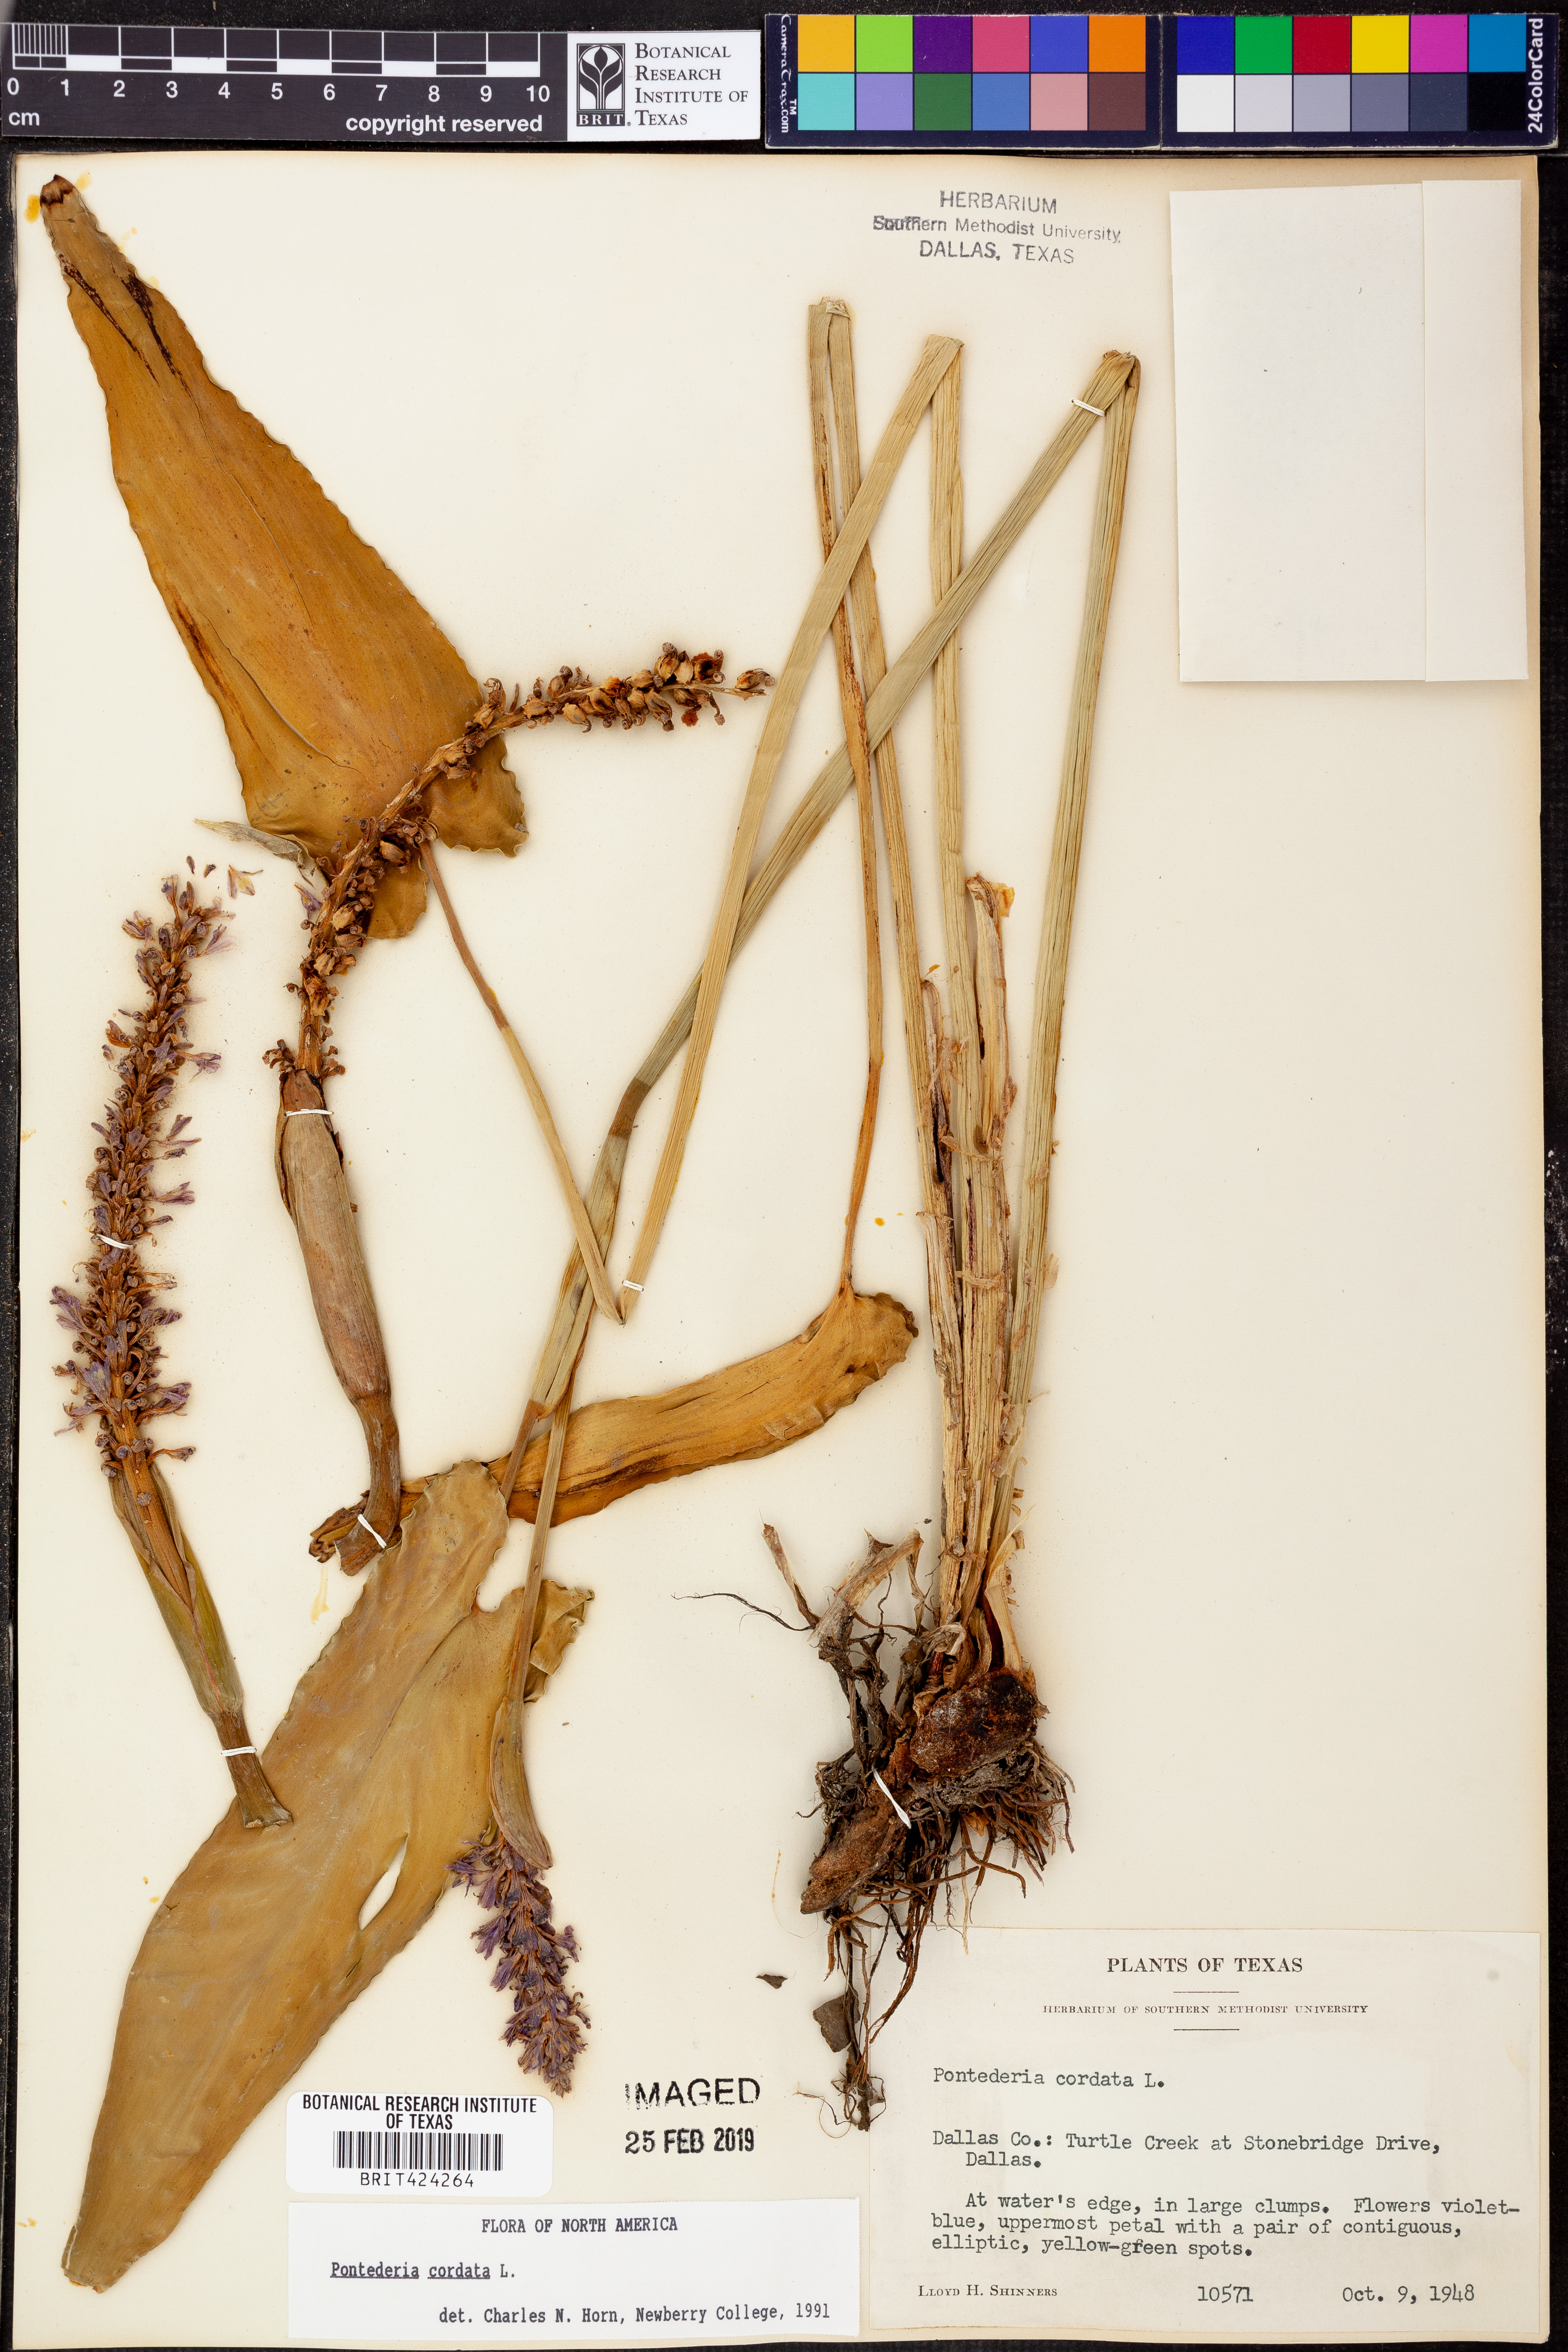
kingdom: Plantae
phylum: Tracheophyta
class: Liliopsida
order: Commelinales
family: Pontederiaceae
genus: Pontederia
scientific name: Pontederia cordata
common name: Pickerelweed
